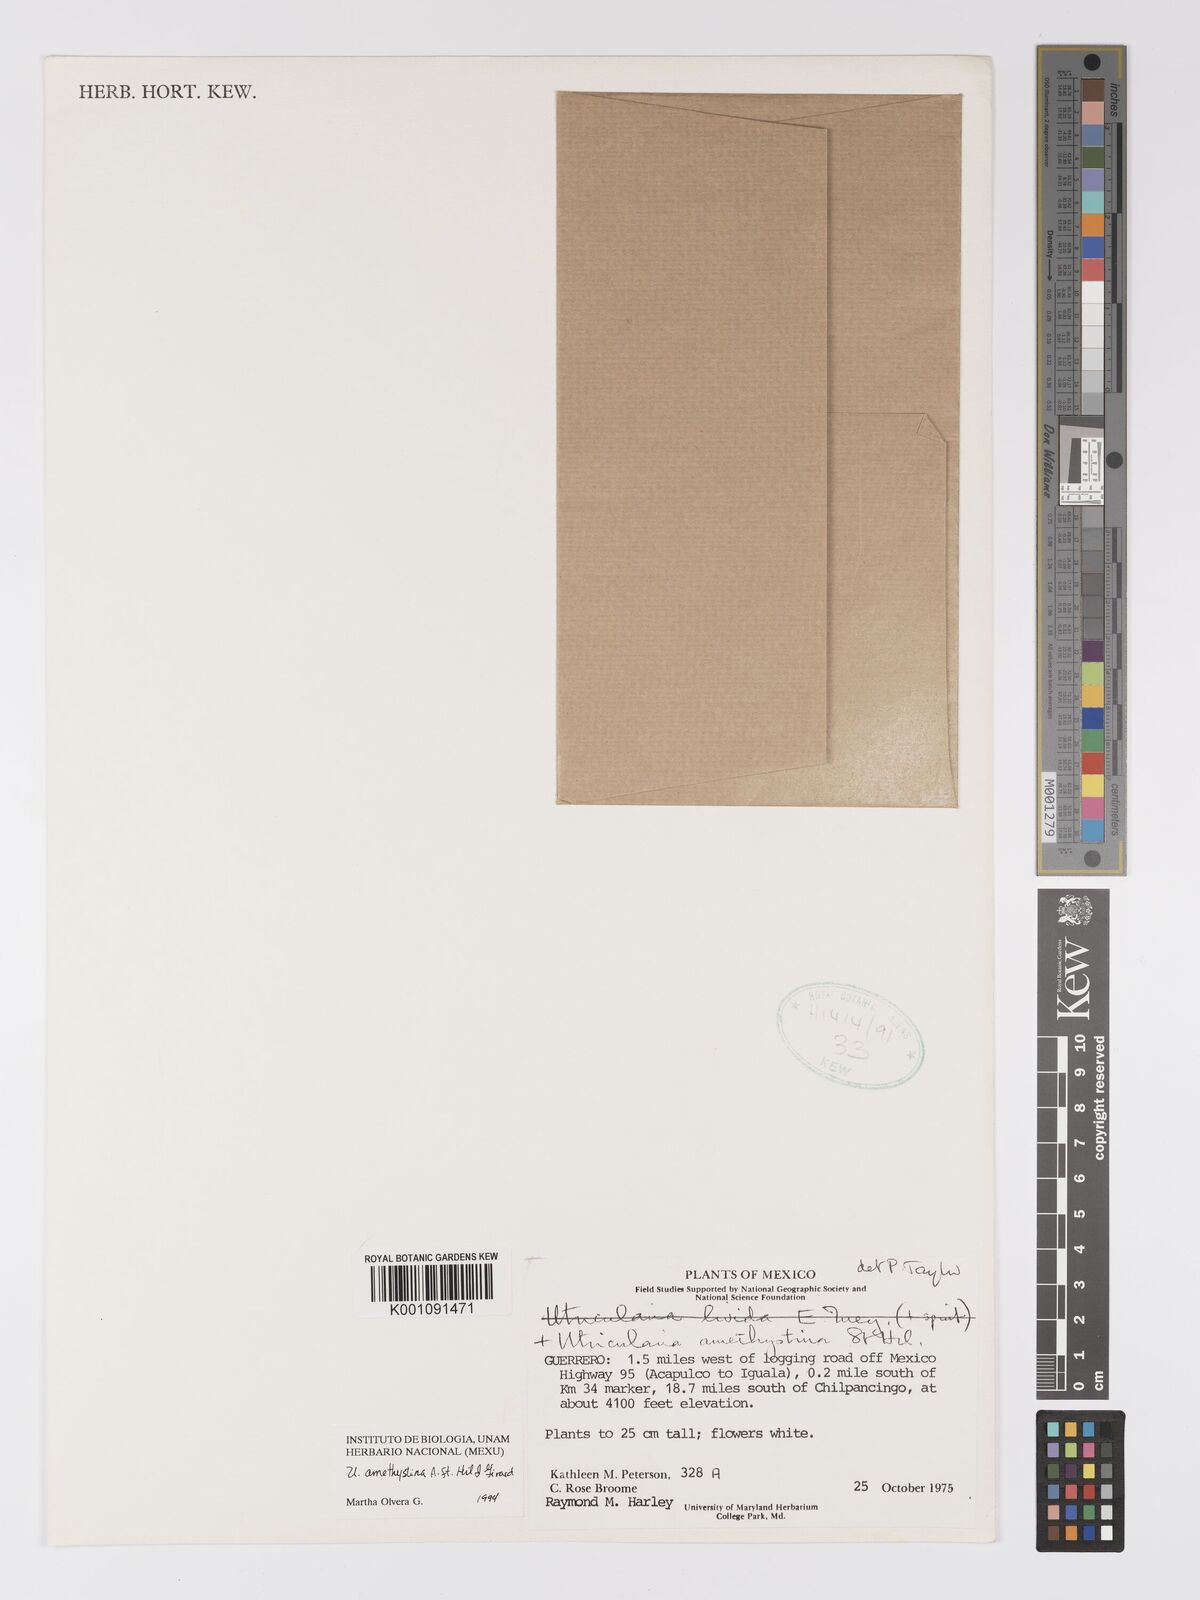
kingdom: Plantae
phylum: Tracheophyta
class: Magnoliopsida
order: Lamiales
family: Lentibulariaceae
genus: Utricularia
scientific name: Utricularia amethystina
